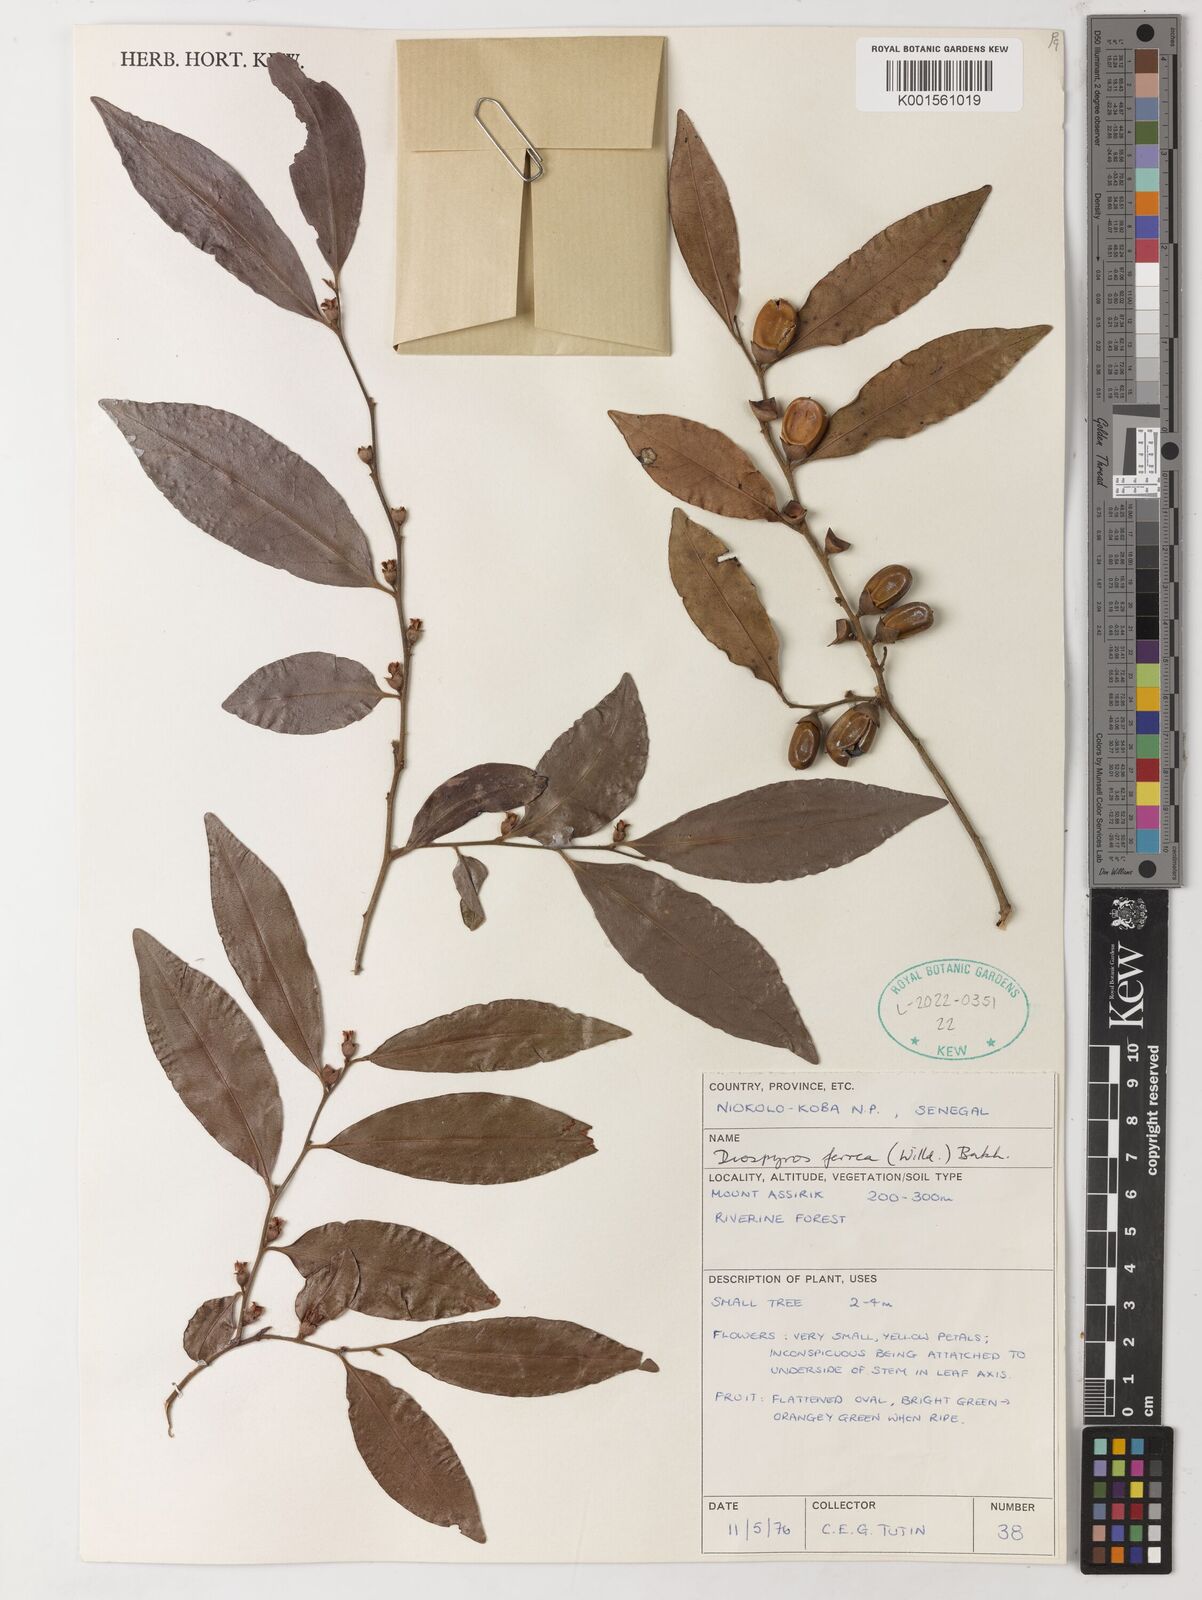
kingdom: Plantae
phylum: Tracheophyta
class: Magnoliopsida
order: Ericales
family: Ebenaceae
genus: Diospyros
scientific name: Diospyros ferrea
